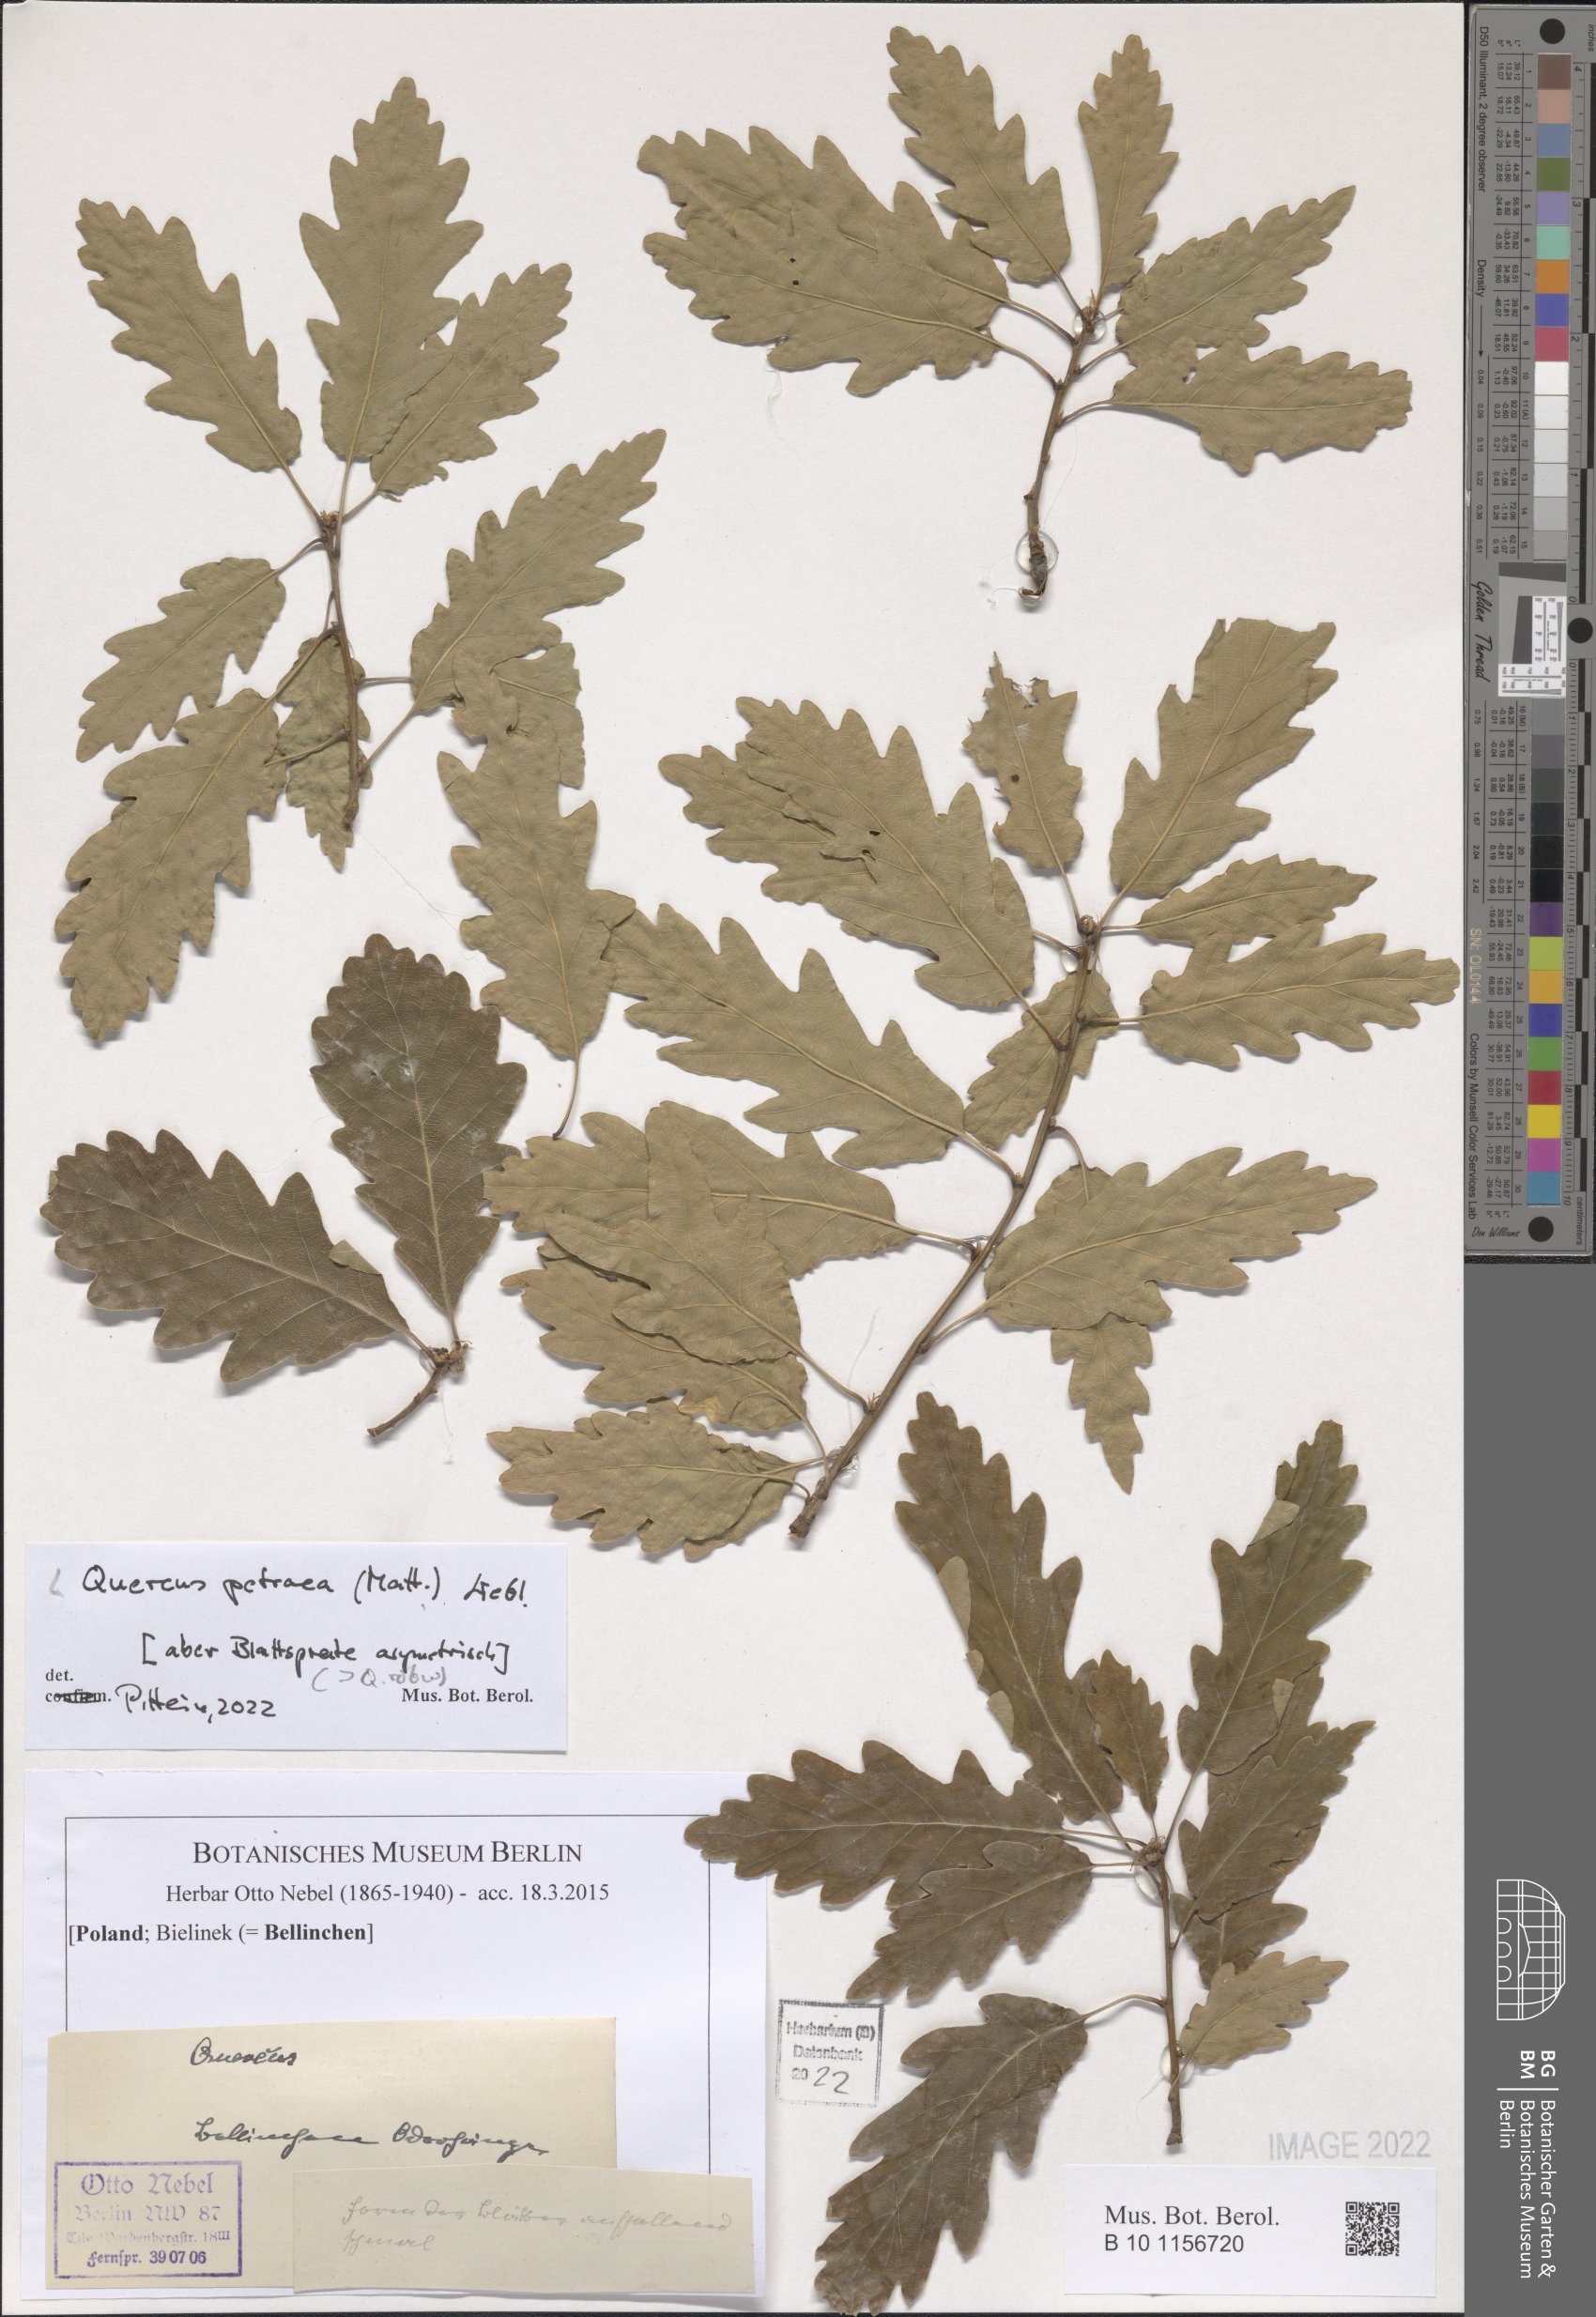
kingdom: Plantae
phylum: Tracheophyta
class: Magnoliopsida
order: Fagales
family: Fagaceae
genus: Quercus
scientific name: Quercus petraea
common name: Sessile oak
